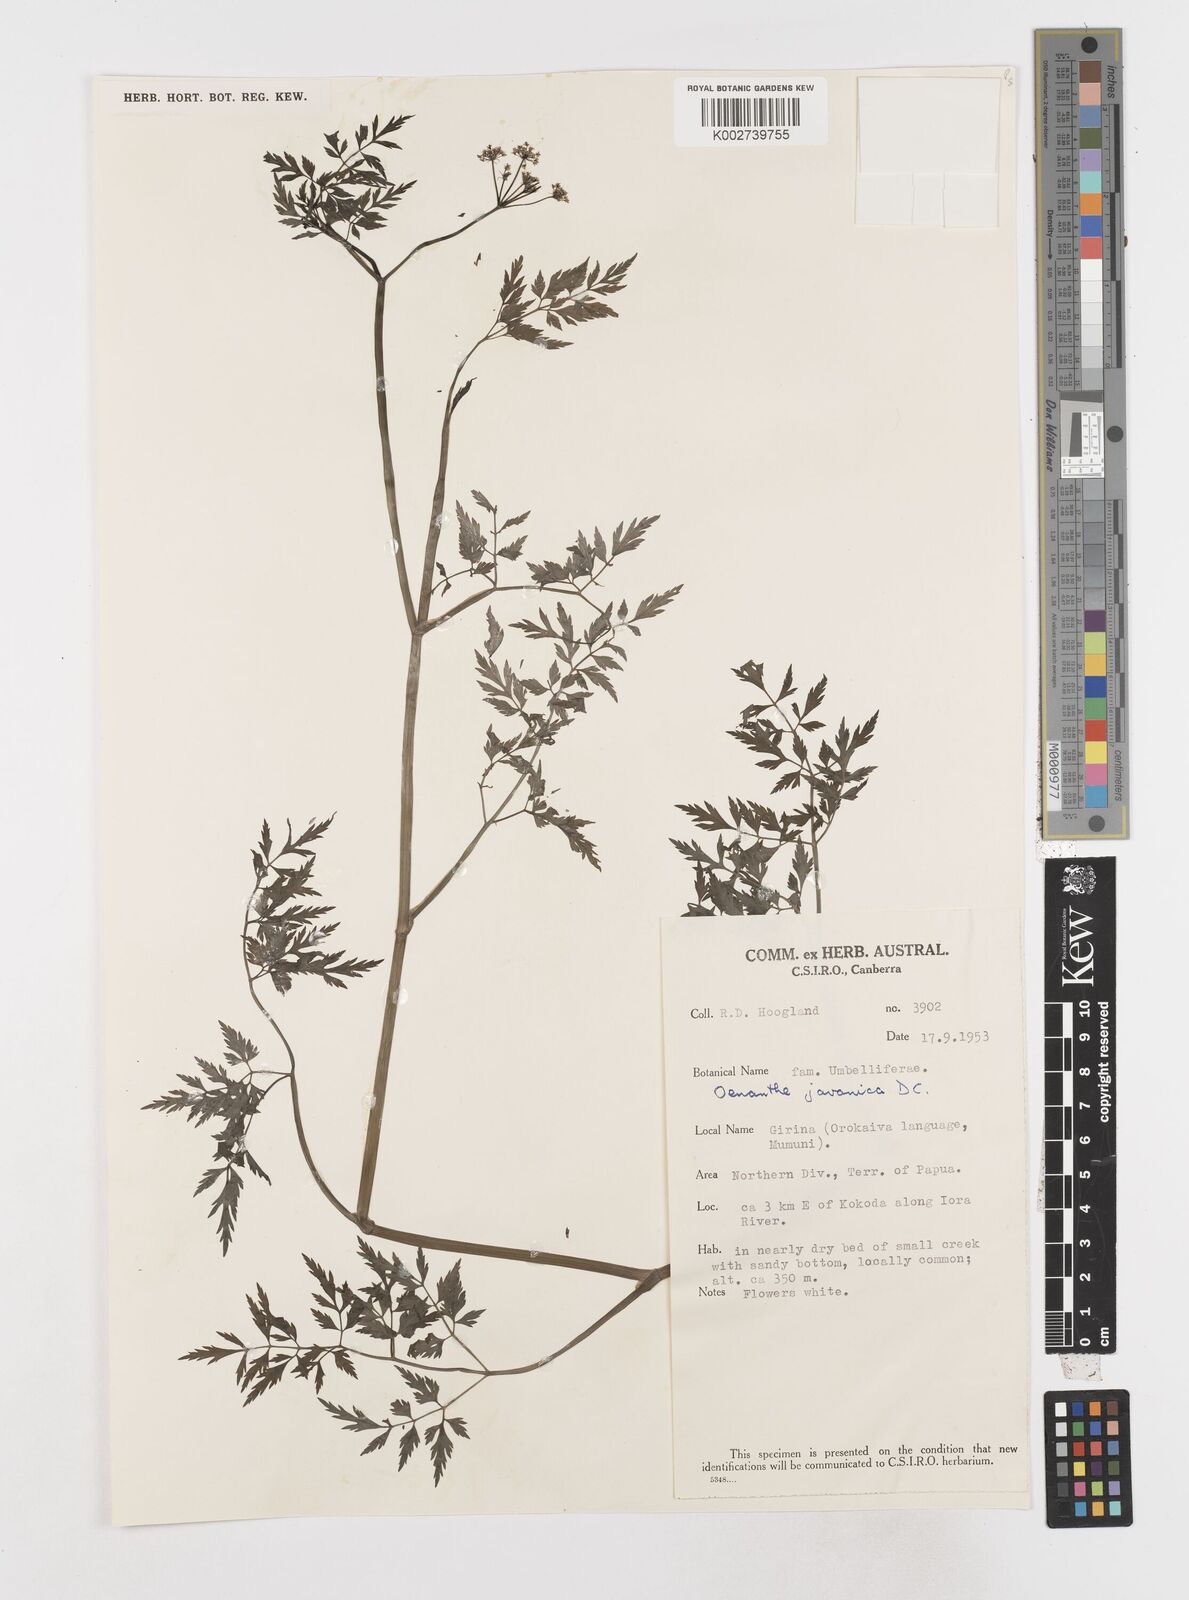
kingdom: Plantae
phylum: Tracheophyta
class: Magnoliopsida
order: Apiales
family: Apiaceae
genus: Oenanthe
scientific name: Oenanthe javanica
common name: Java water-dropwort
